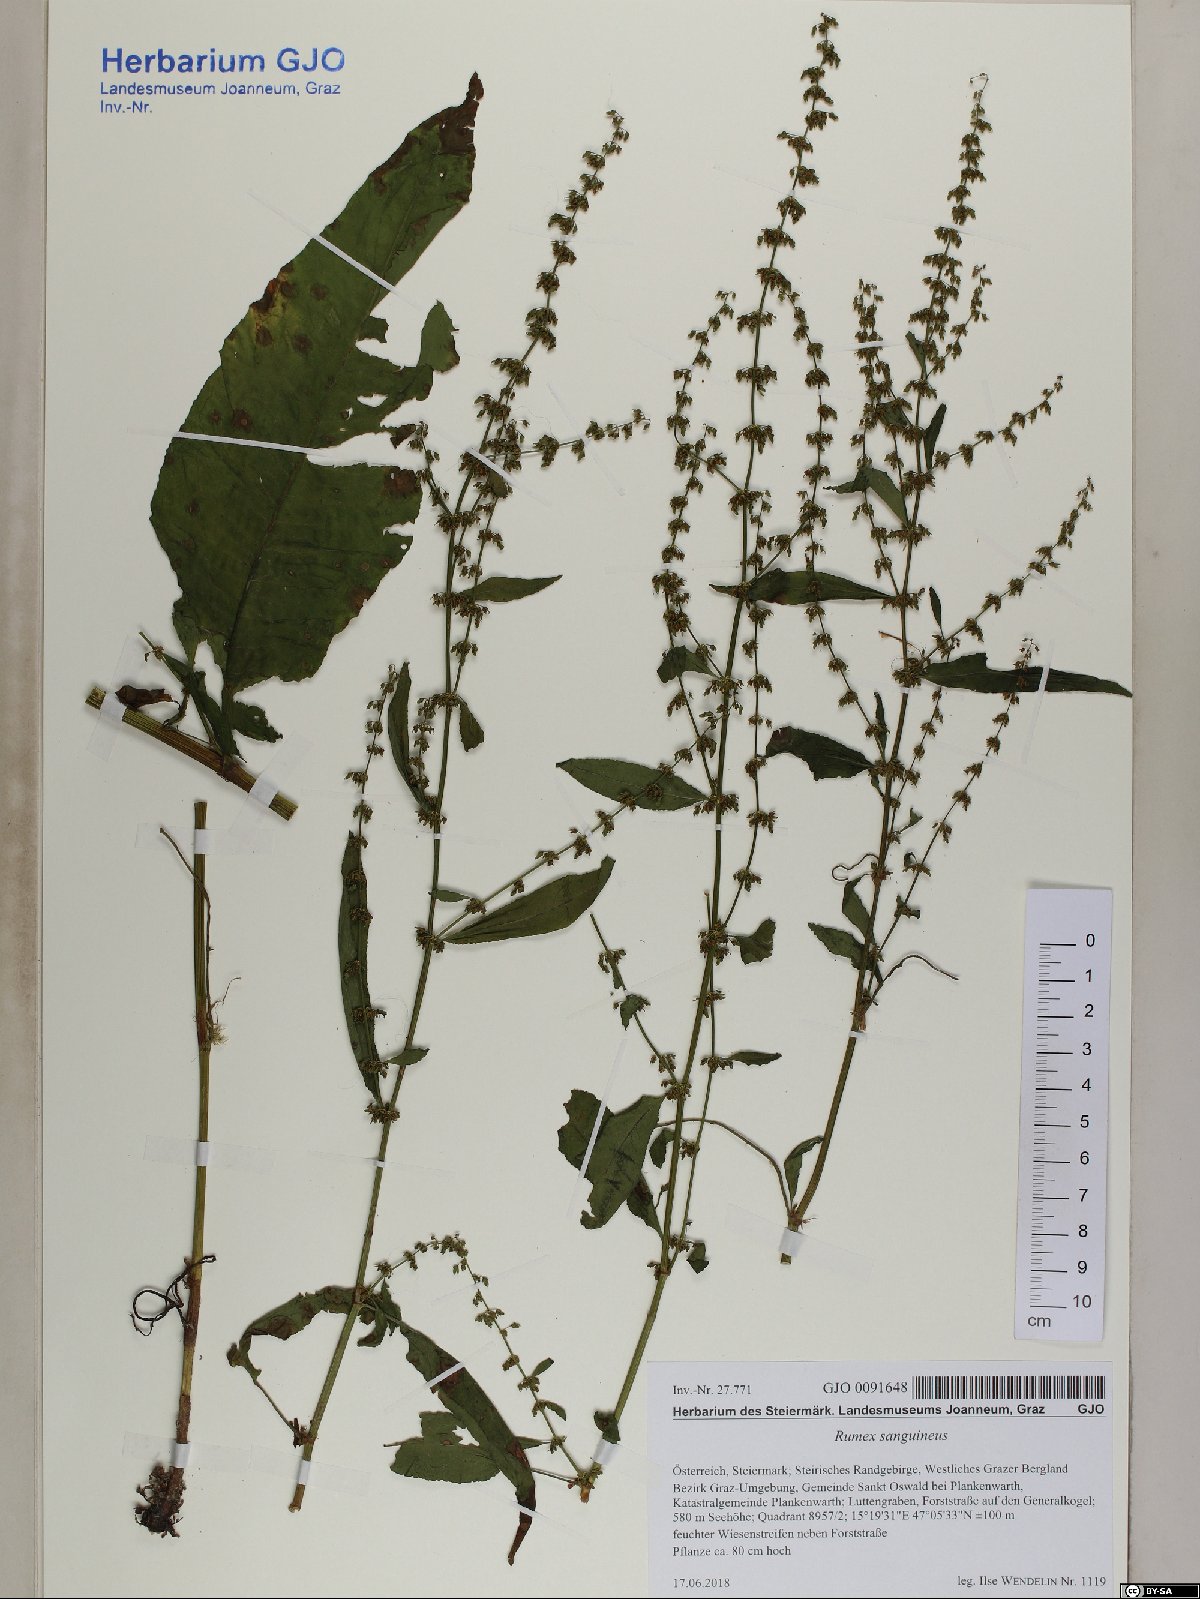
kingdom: Plantae
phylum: Tracheophyta
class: Magnoliopsida
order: Caryophyllales
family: Polygonaceae
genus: Rumex
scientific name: Rumex sanguineus
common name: Wood dock
